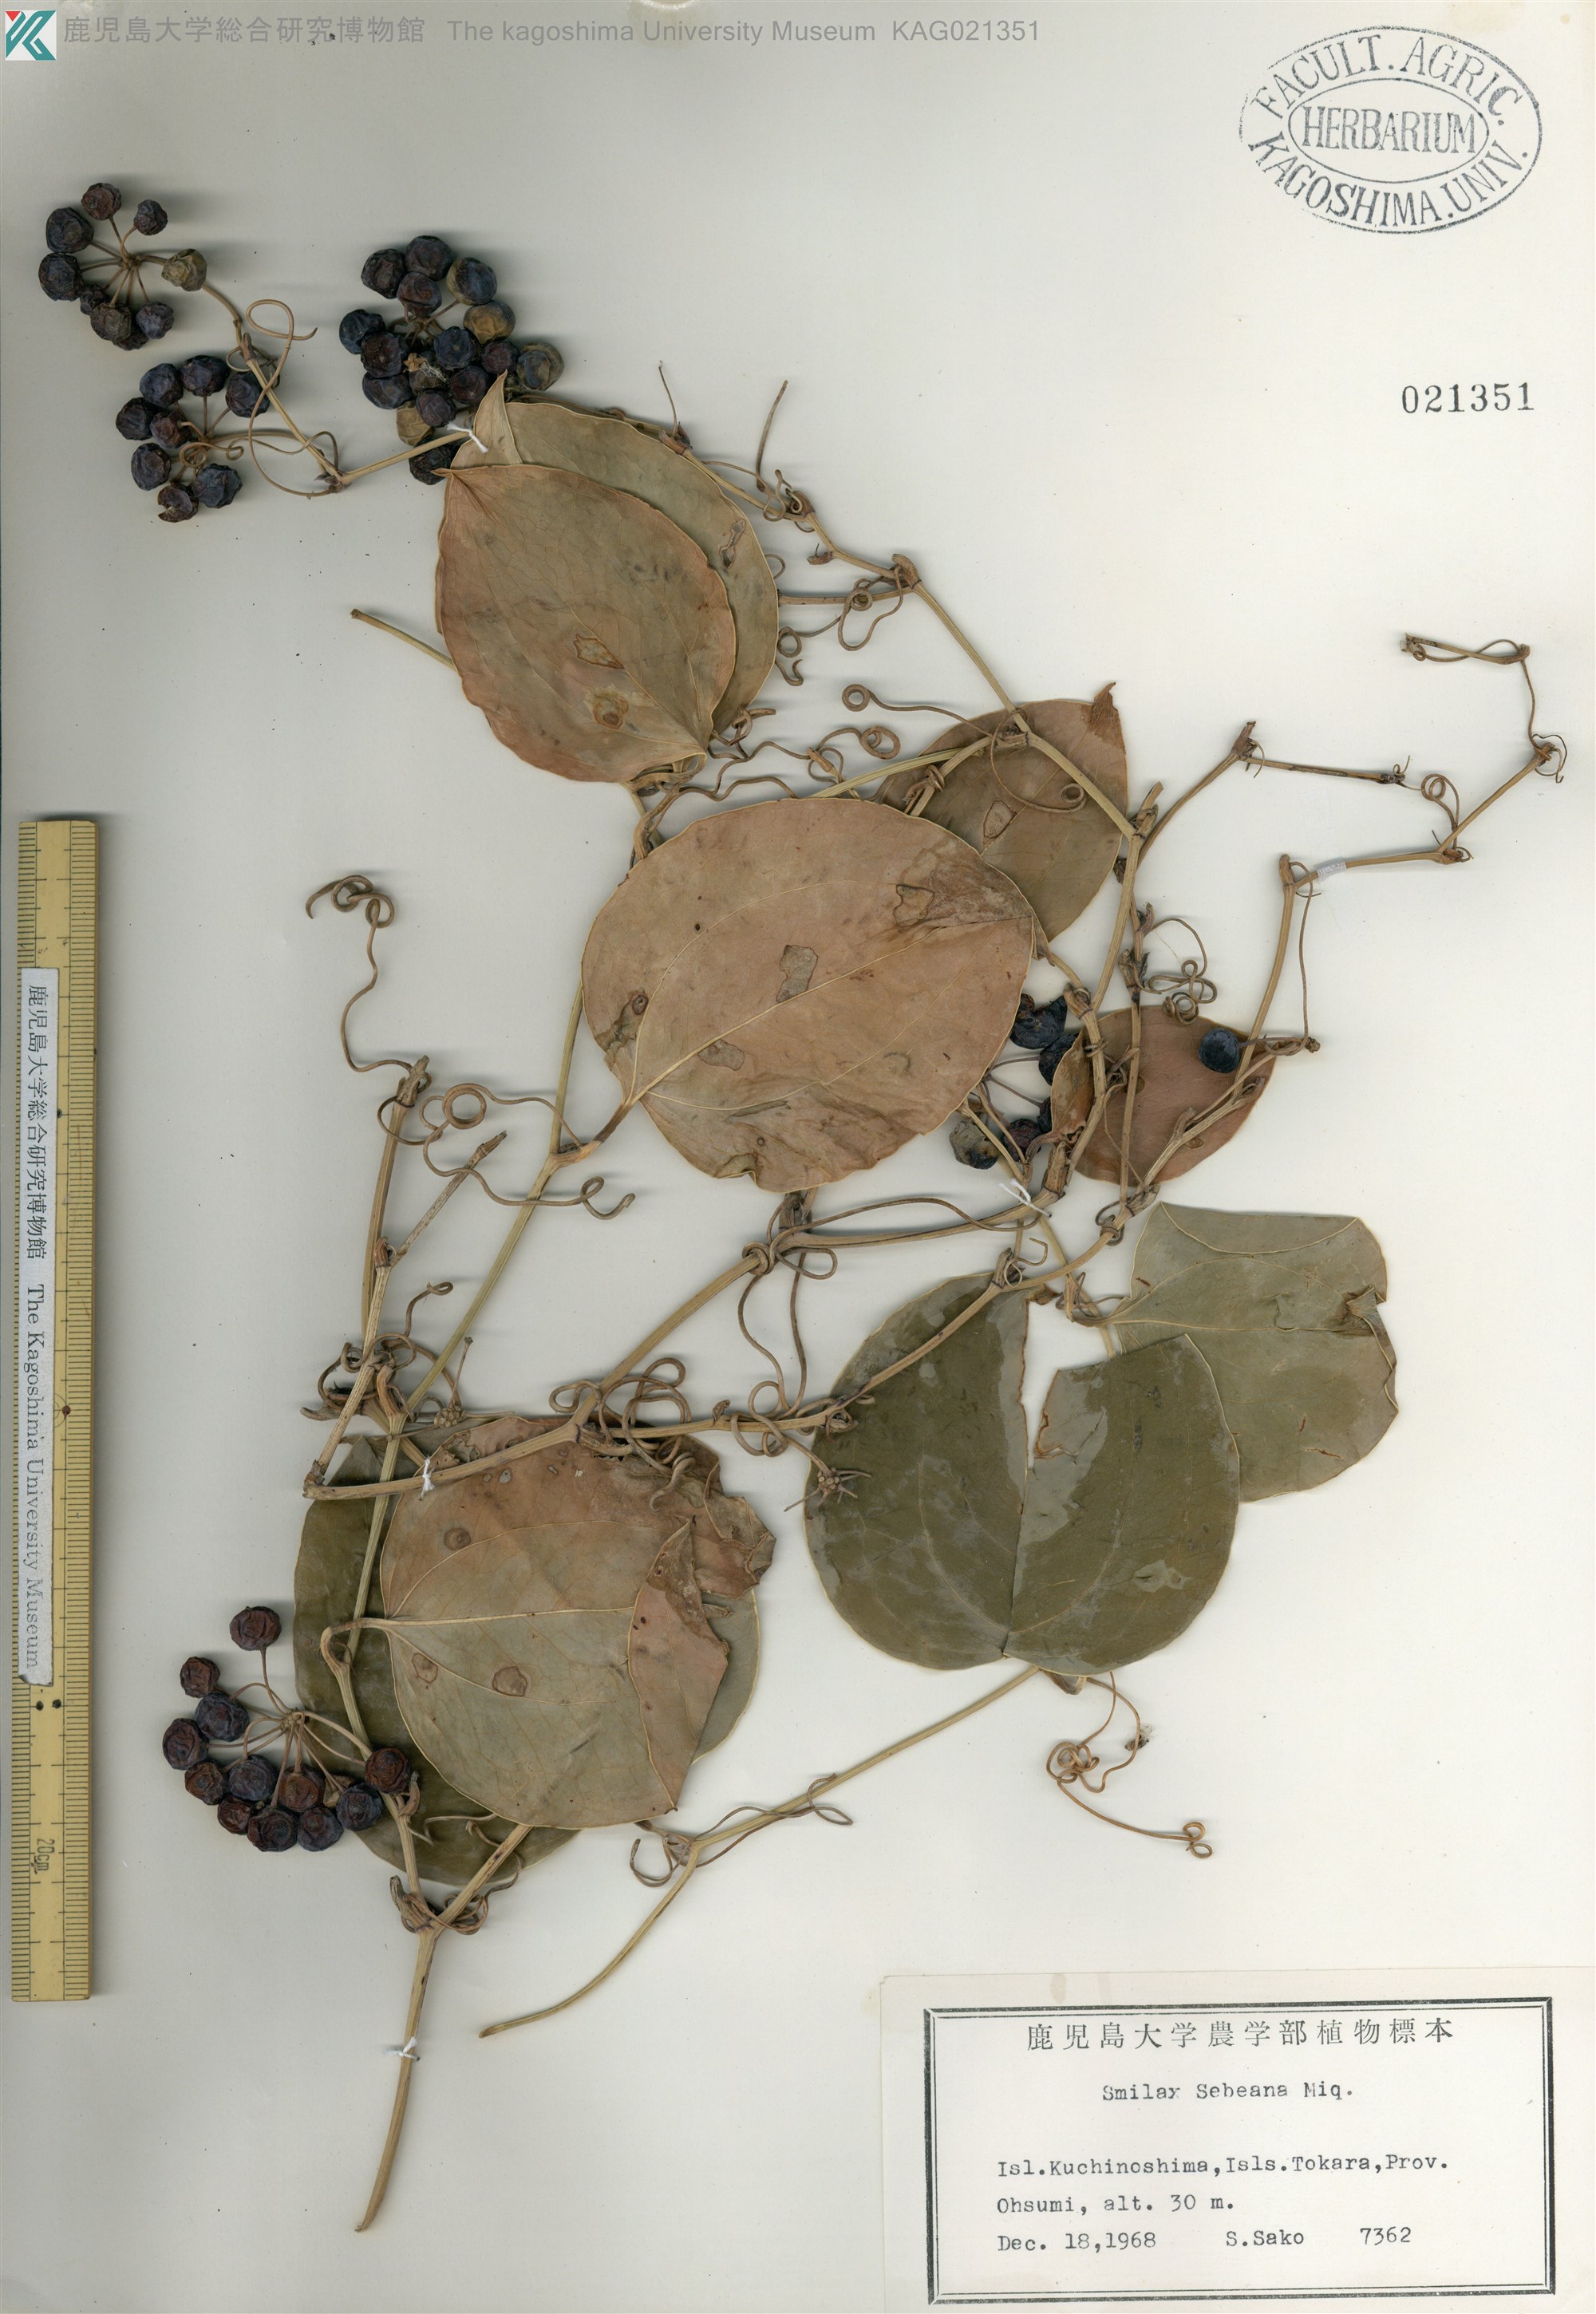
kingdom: Plantae
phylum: Tracheophyta
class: Liliopsida
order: Liliales
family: Smilacaceae
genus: Smilax
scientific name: Smilax sebeana
